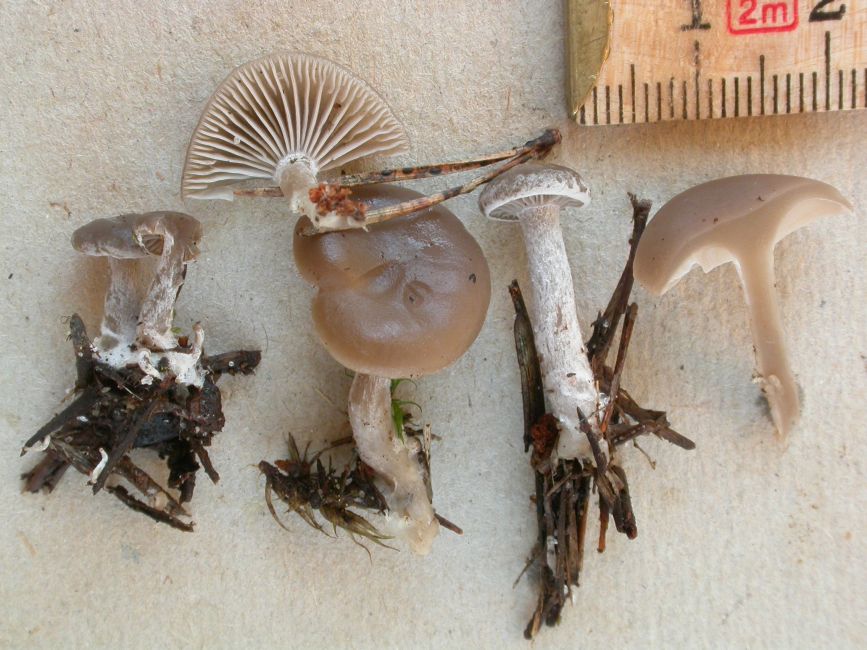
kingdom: Fungi
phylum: Basidiomycota
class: Agaricomycetes
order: Agaricales
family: Tricholomataceae
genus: Clitocybe
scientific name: Clitocybe vibecina
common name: randstribet tragthat
